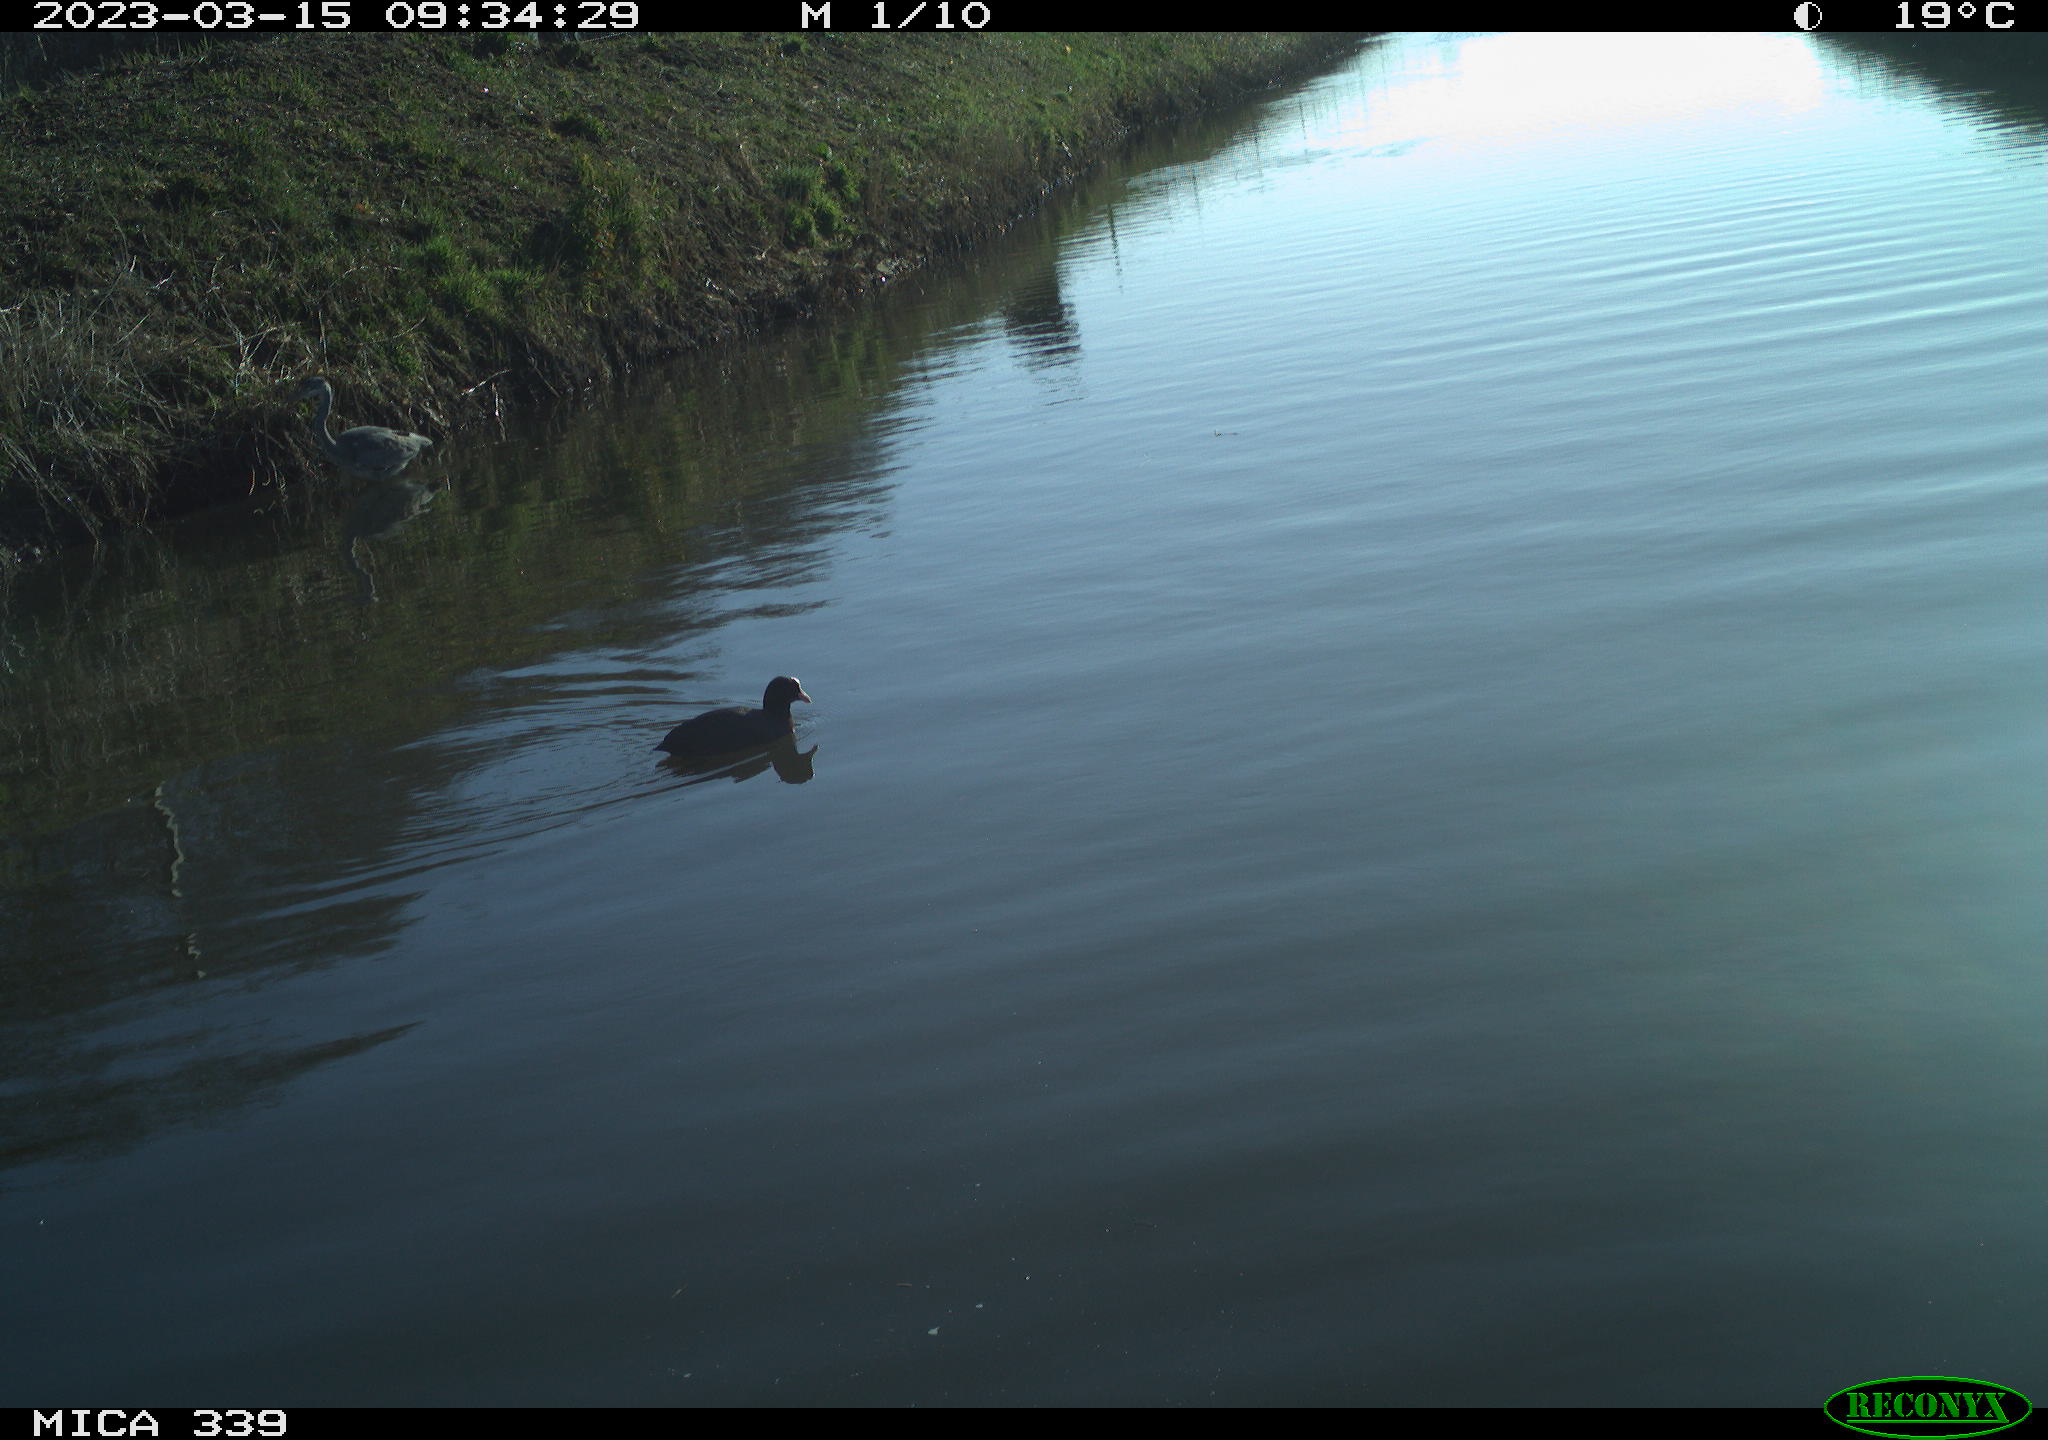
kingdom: Animalia
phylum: Chordata
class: Aves
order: Gruiformes
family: Rallidae
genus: Fulica
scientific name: Fulica atra
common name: Eurasian coot
